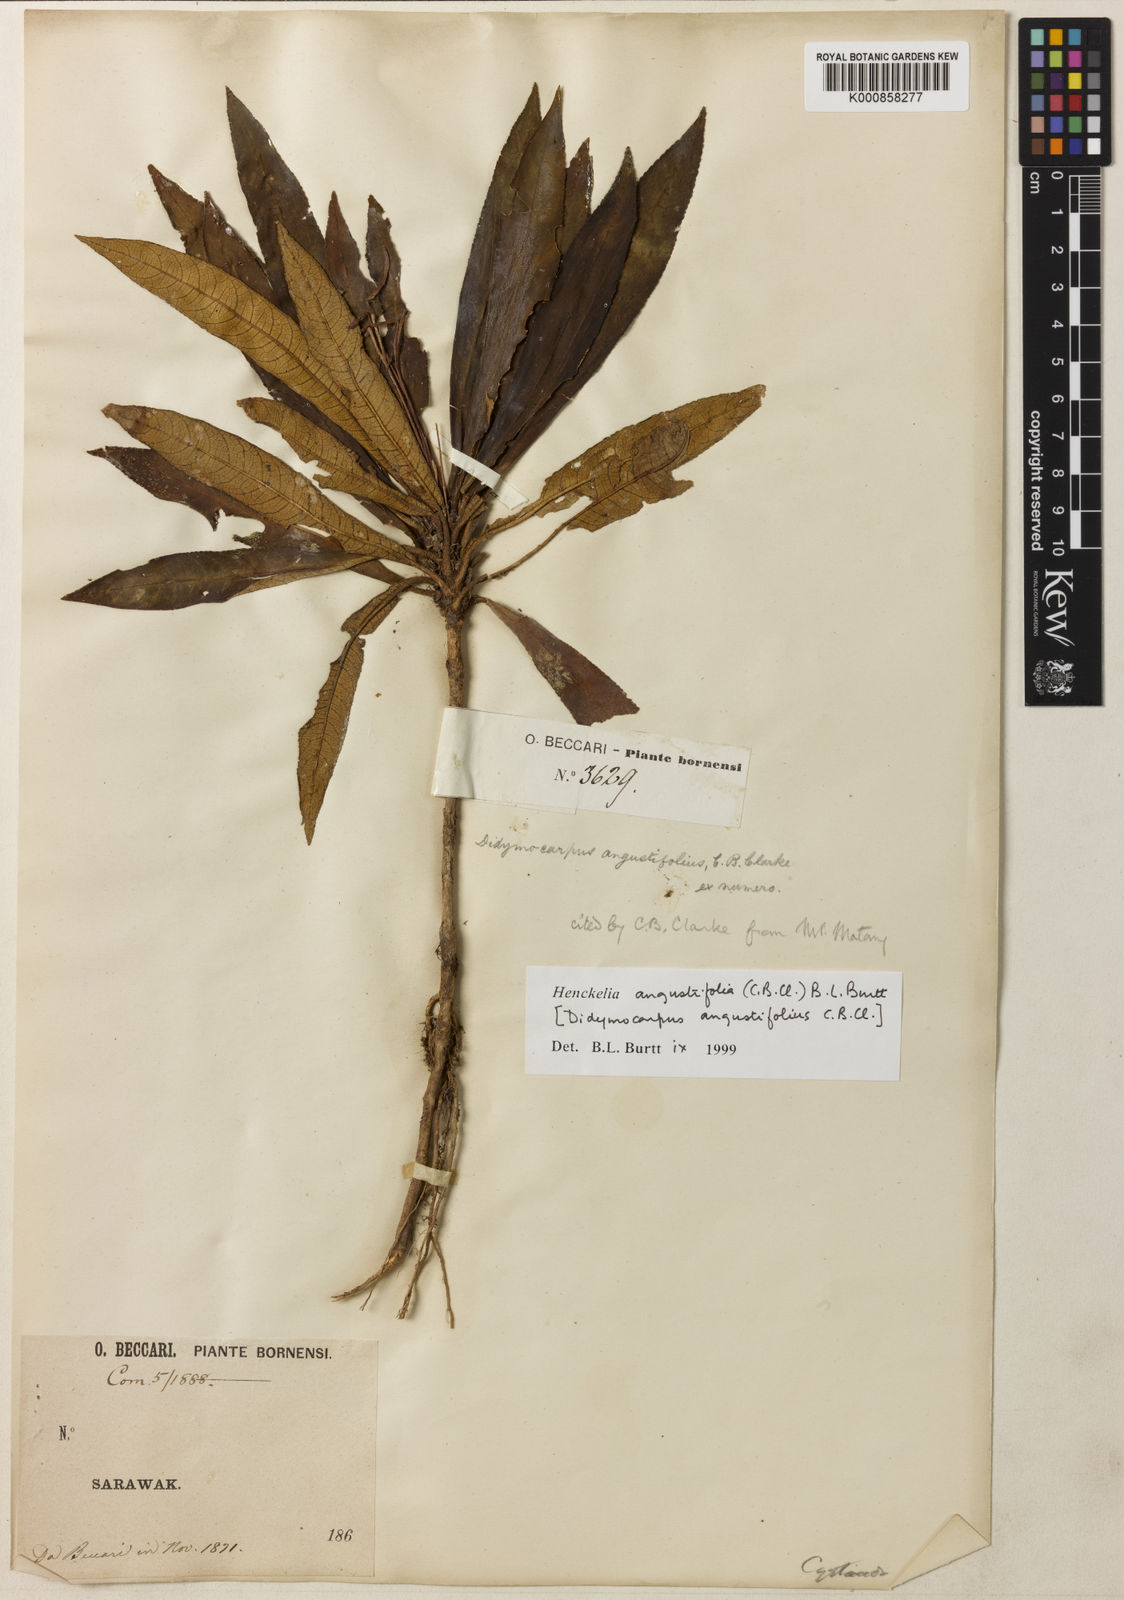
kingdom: Plantae
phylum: Tracheophyta
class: Magnoliopsida
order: Lamiales
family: Gesneriaceae
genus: Codonoboea
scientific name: Codonoboea angustifolia
